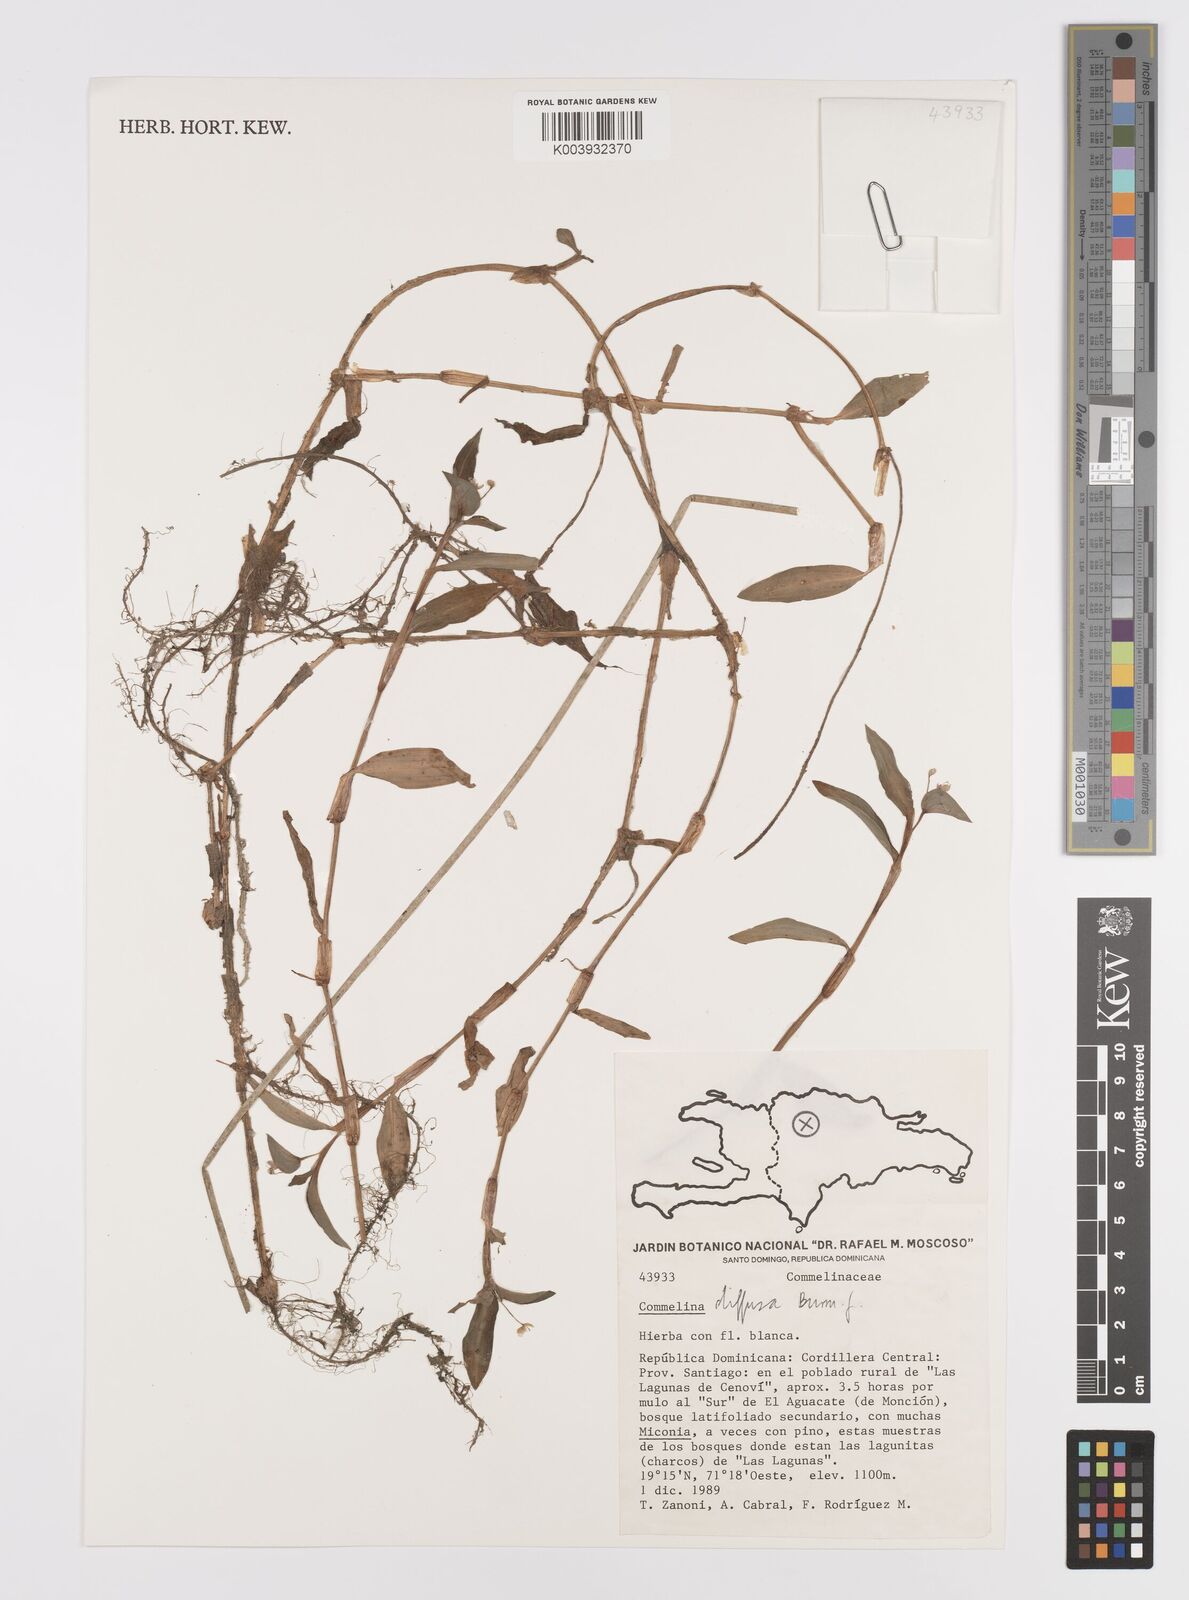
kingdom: Plantae
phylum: Tracheophyta
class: Liliopsida
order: Commelinales
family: Commelinaceae
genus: Commelina
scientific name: Commelina diffusa
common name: Climbing dayflower
